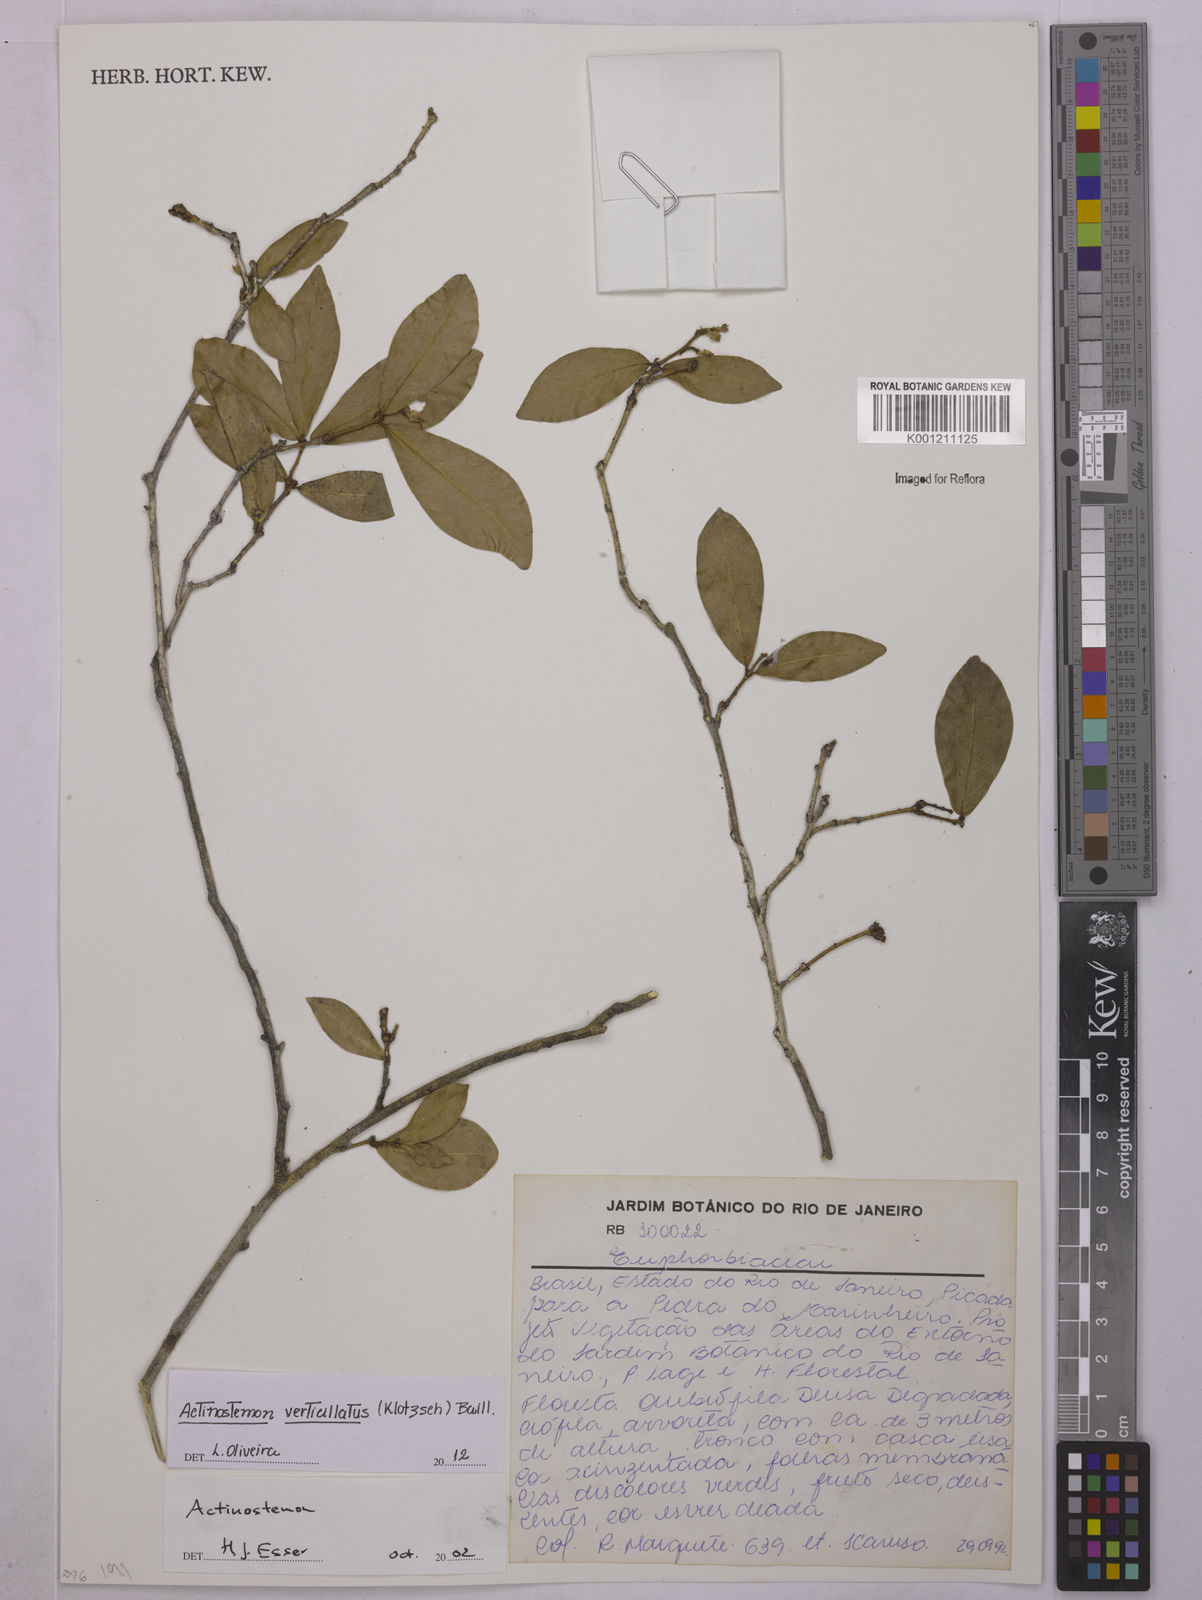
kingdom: Plantae
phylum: Tracheophyta
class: Magnoliopsida
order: Malpighiales
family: Euphorbiaceae
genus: Actinostemon
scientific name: Actinostemon verticillatus
